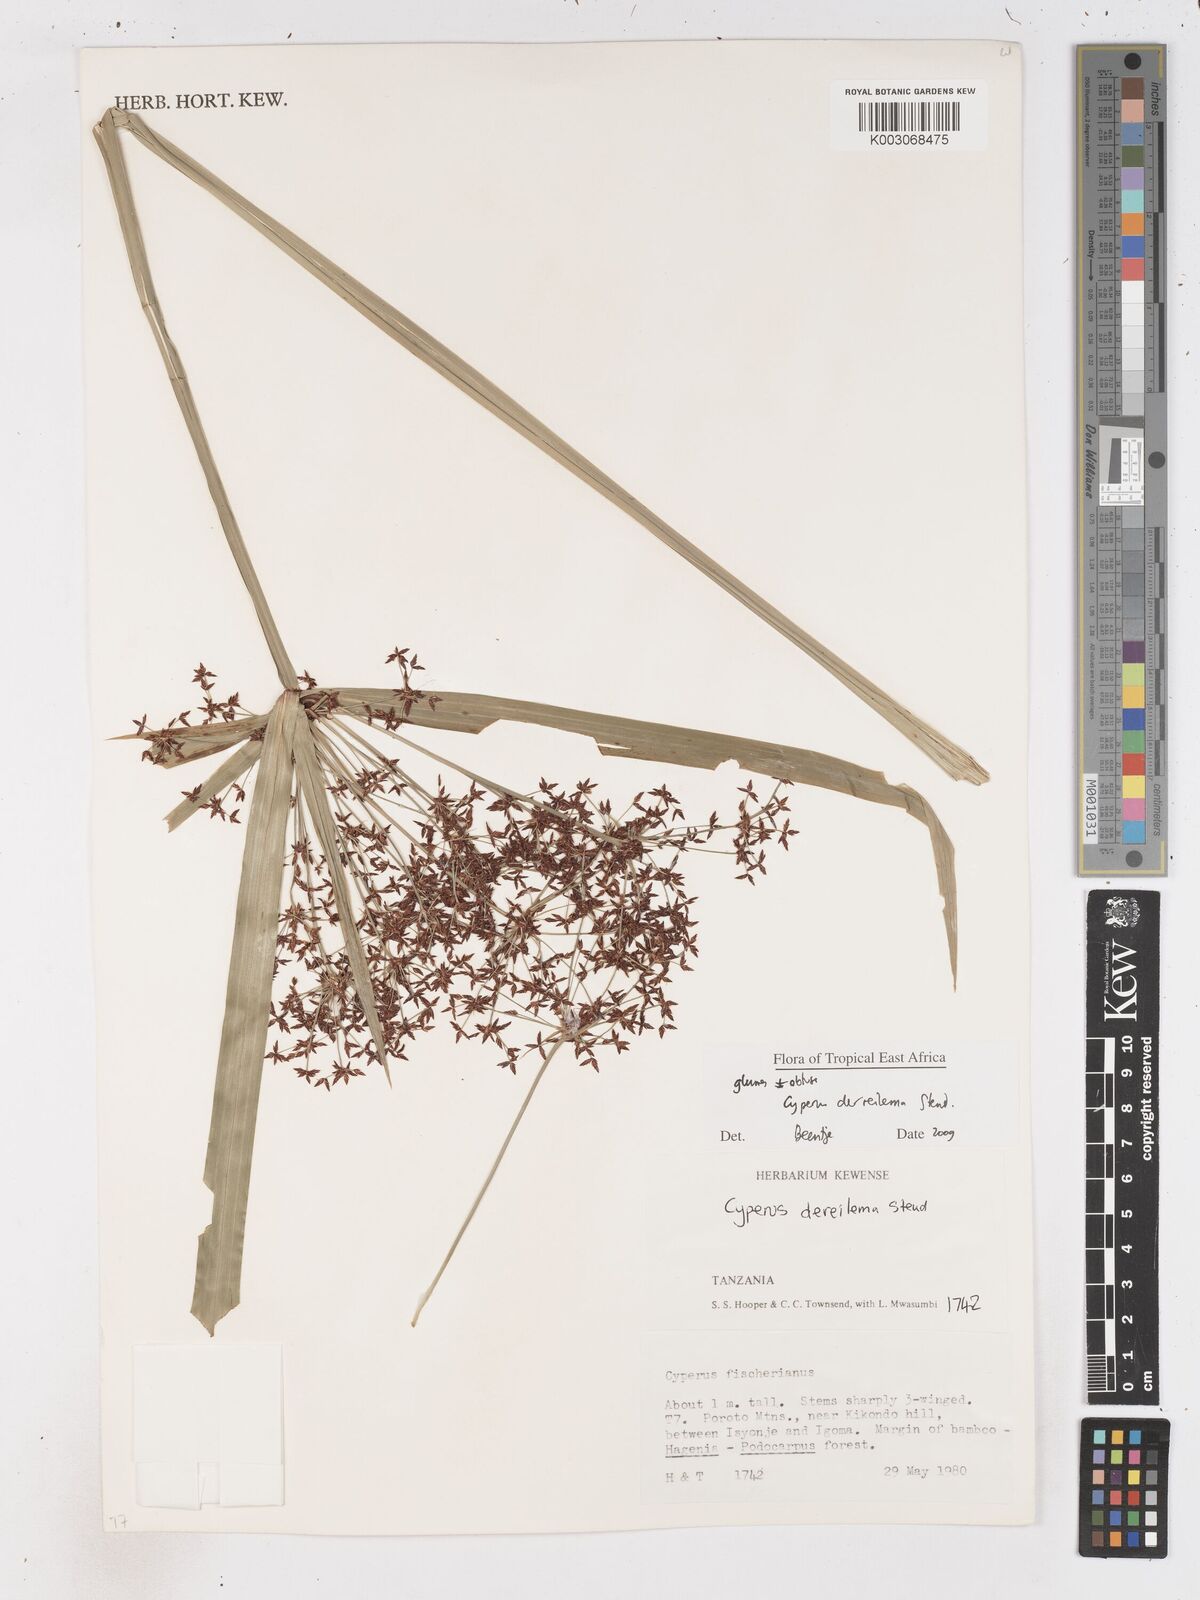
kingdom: Plantae
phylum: Tracheophyta
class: Liliopsida
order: Poales
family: Cyperaceae
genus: Cyperus
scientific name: Cyperus derreilema
